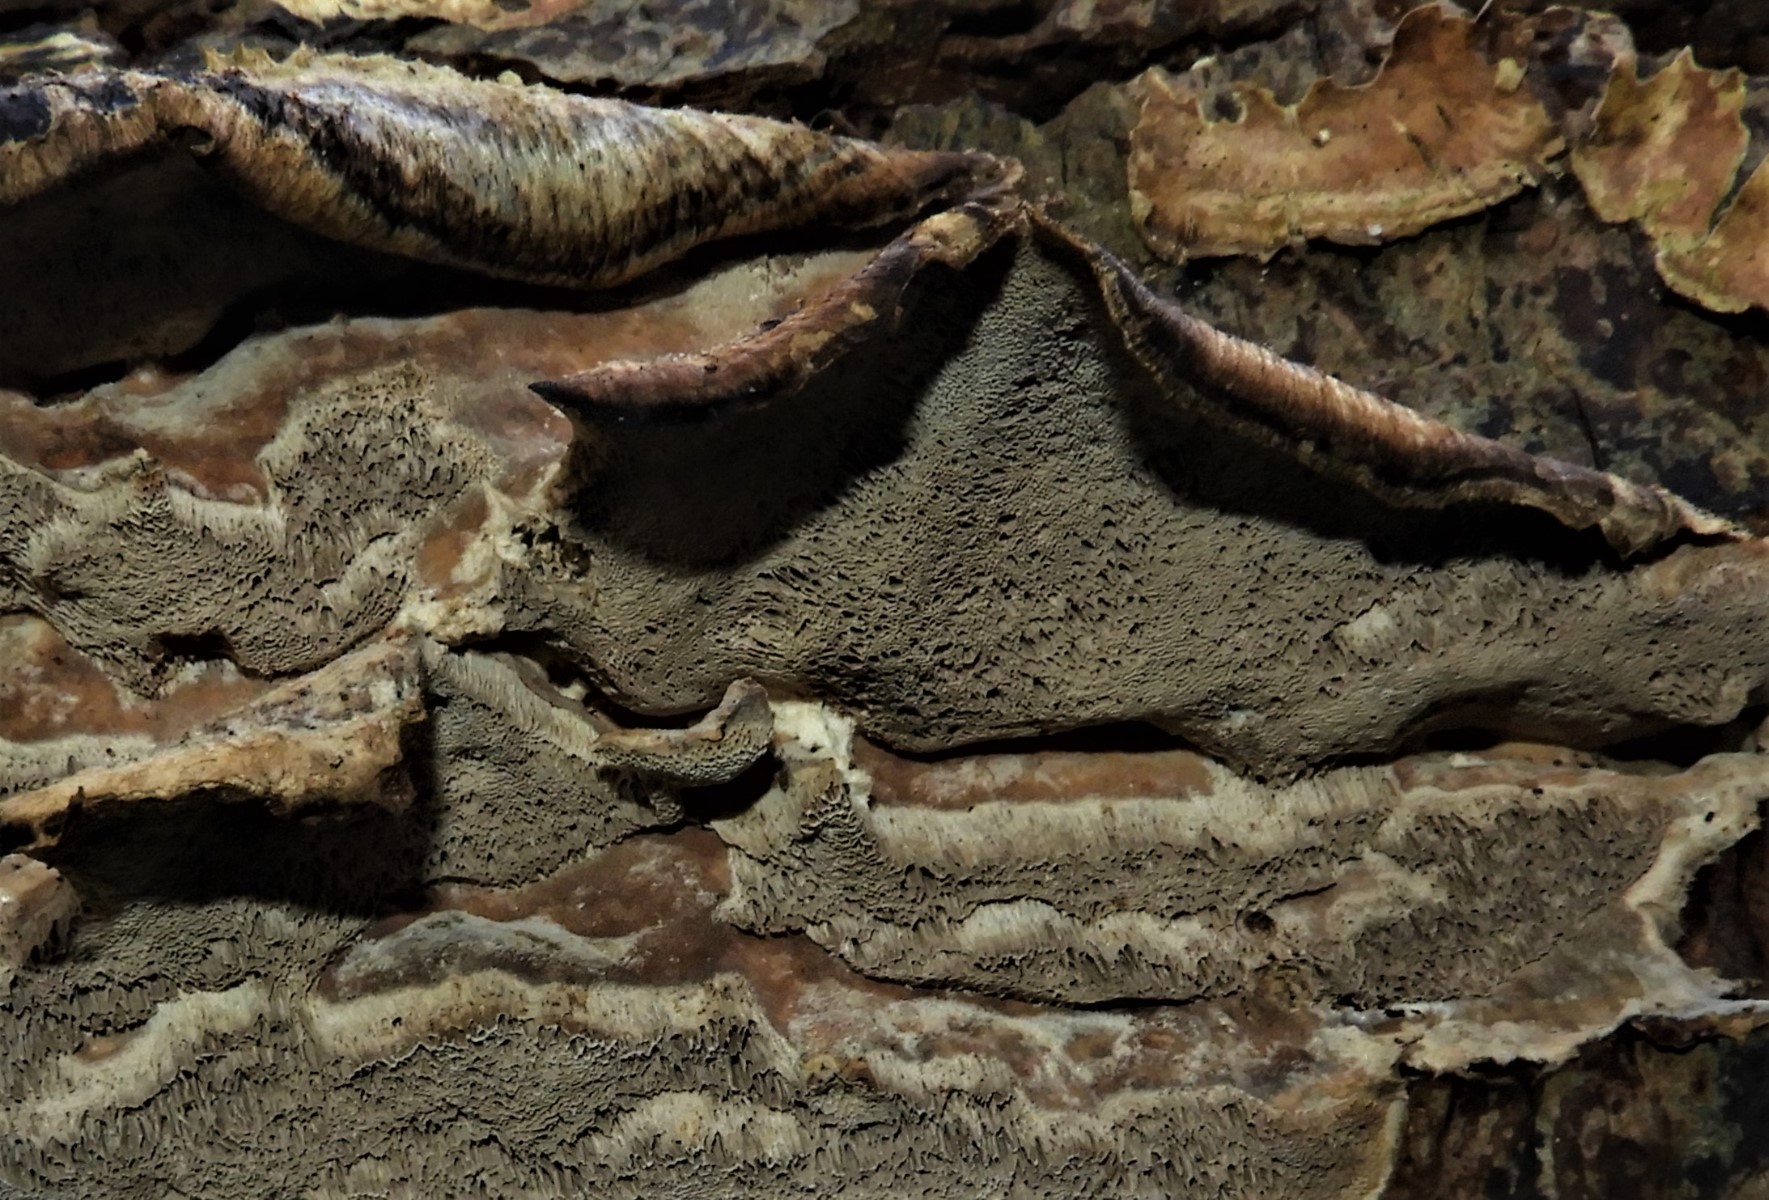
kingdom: Fungi
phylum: Basidiomycota
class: Agaricomycetes
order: Polyporales
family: Phanerochaetaceae
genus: Bjerkandera
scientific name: Bjerkandera adusta
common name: sveden sodporesvamp
